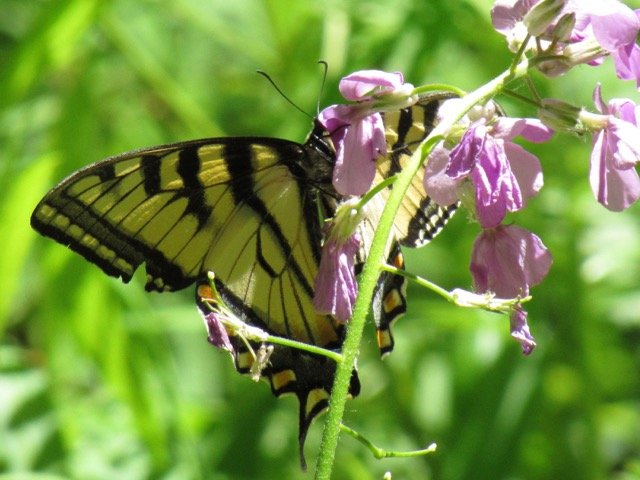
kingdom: Animalia
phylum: Arthropoda
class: Insecta
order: Lepidoptera
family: Papilionidae
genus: Pterourus
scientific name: Pterourus canadensis
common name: Canadian Tiger Swallowtail
